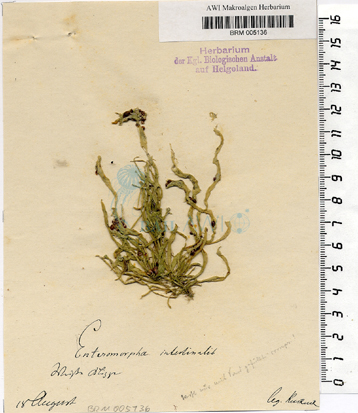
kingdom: Plantae
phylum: Chlorophyta
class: Ulvophyceae
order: Ulvales
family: Ulvaceae
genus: Ulva
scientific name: Ulva intestinalis
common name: Gut weed
